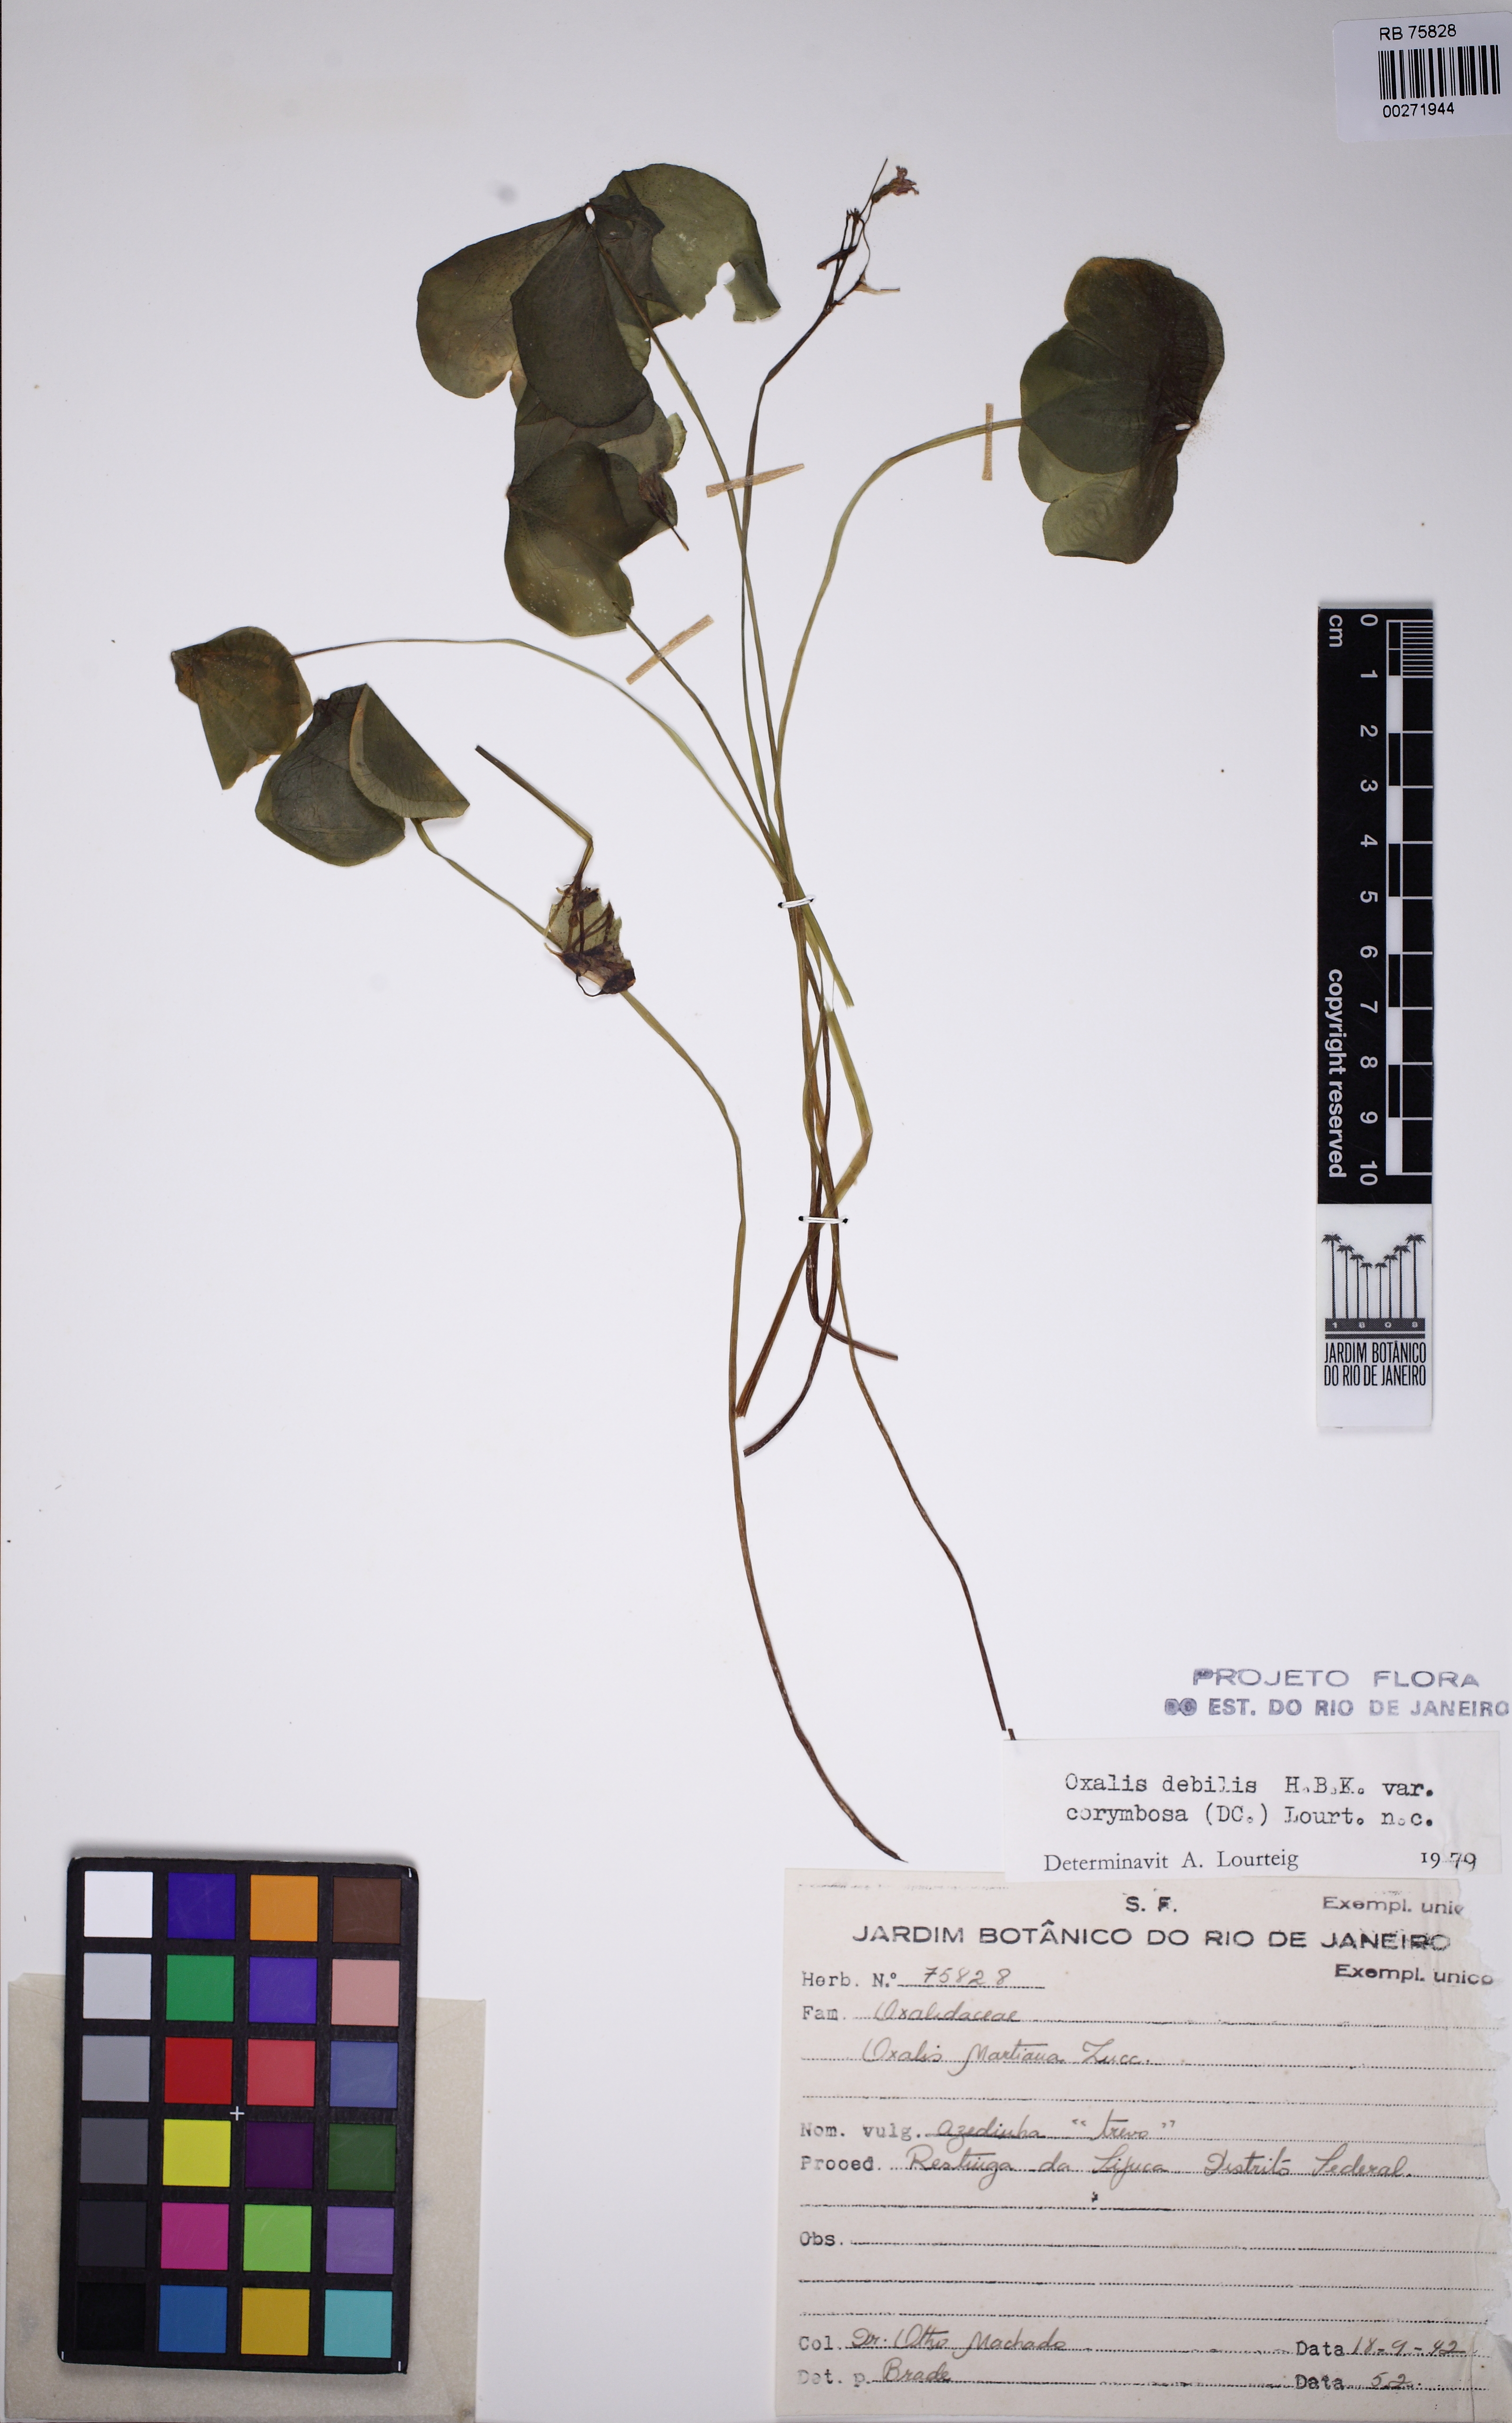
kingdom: Plantae
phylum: Tracheophyta
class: Magnoliopsida
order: Oxalidales
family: Oxalidaceae
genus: Oxalis
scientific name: Oxalis debilis
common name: Large-flowered pink-sorrel
